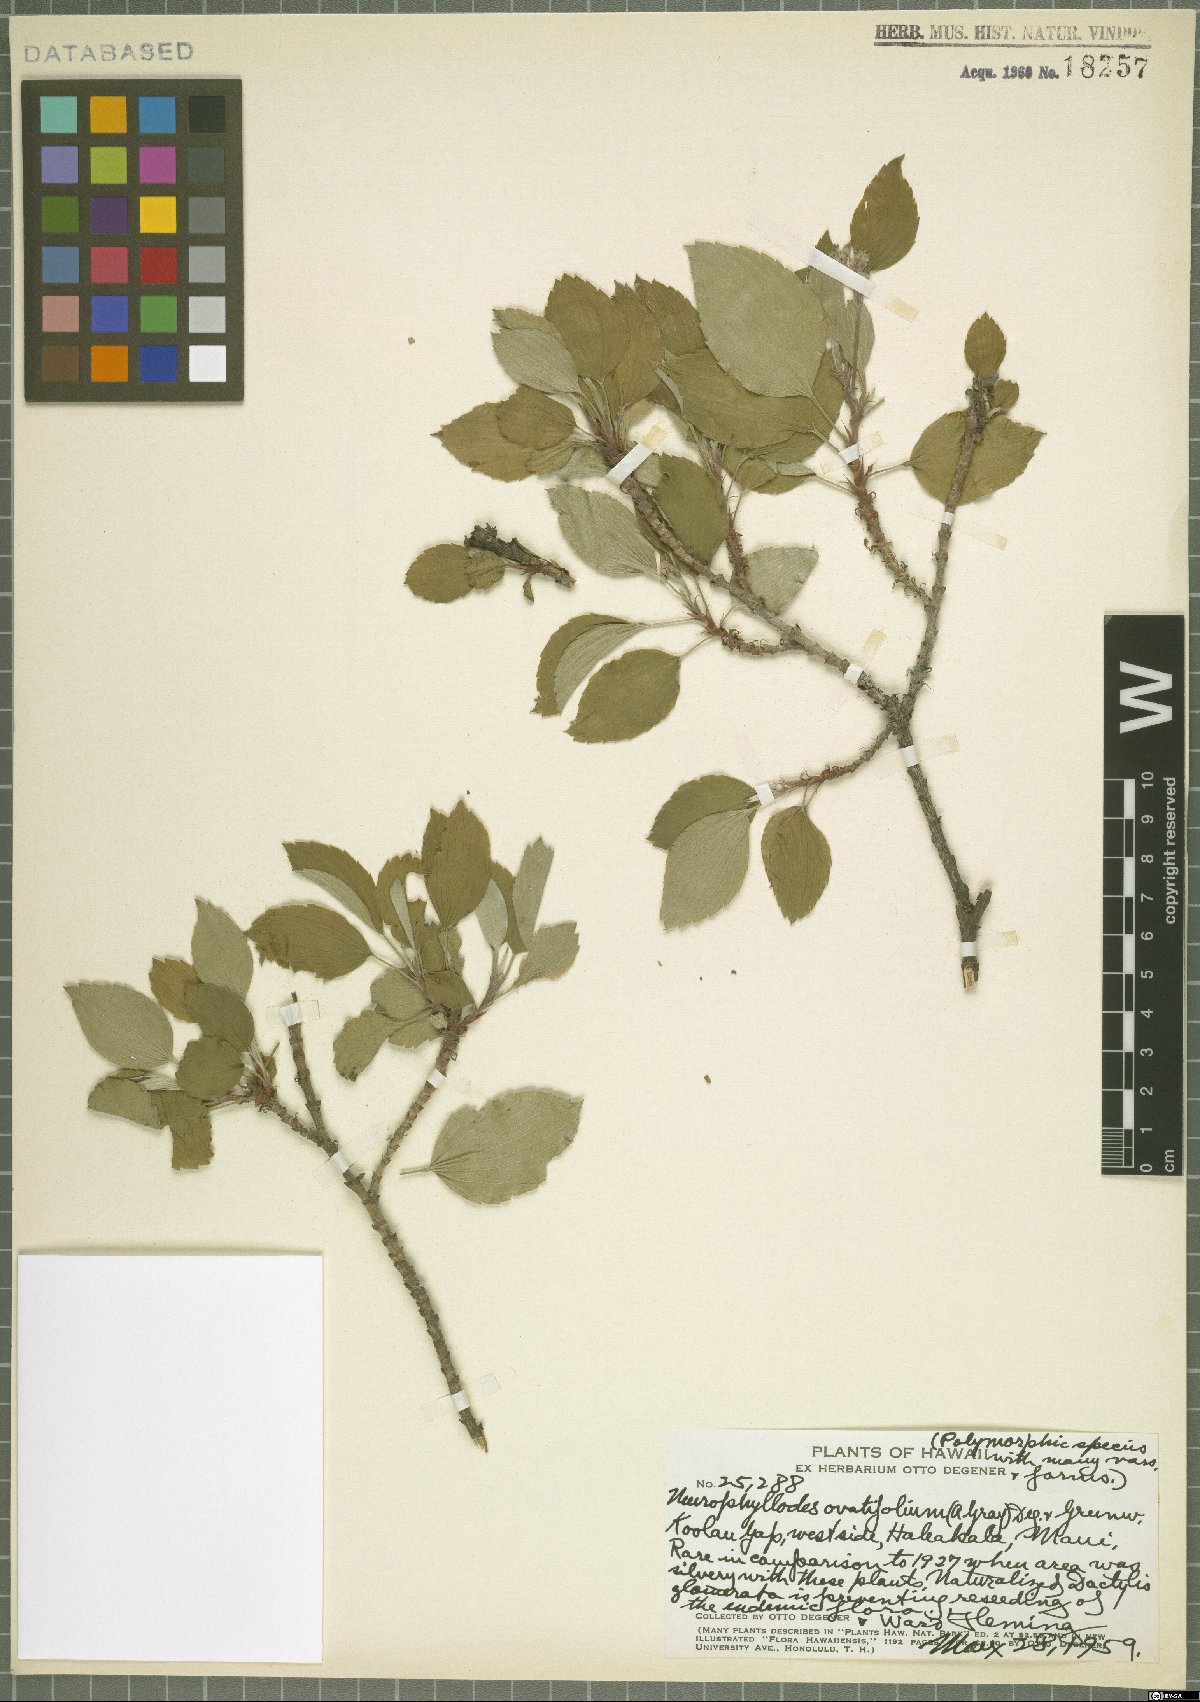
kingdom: Plantae
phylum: Tracheophyta
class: Magnoliopsida
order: Geraniales
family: Geraniaceae
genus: Geranium
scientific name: Geranium multiflorum
